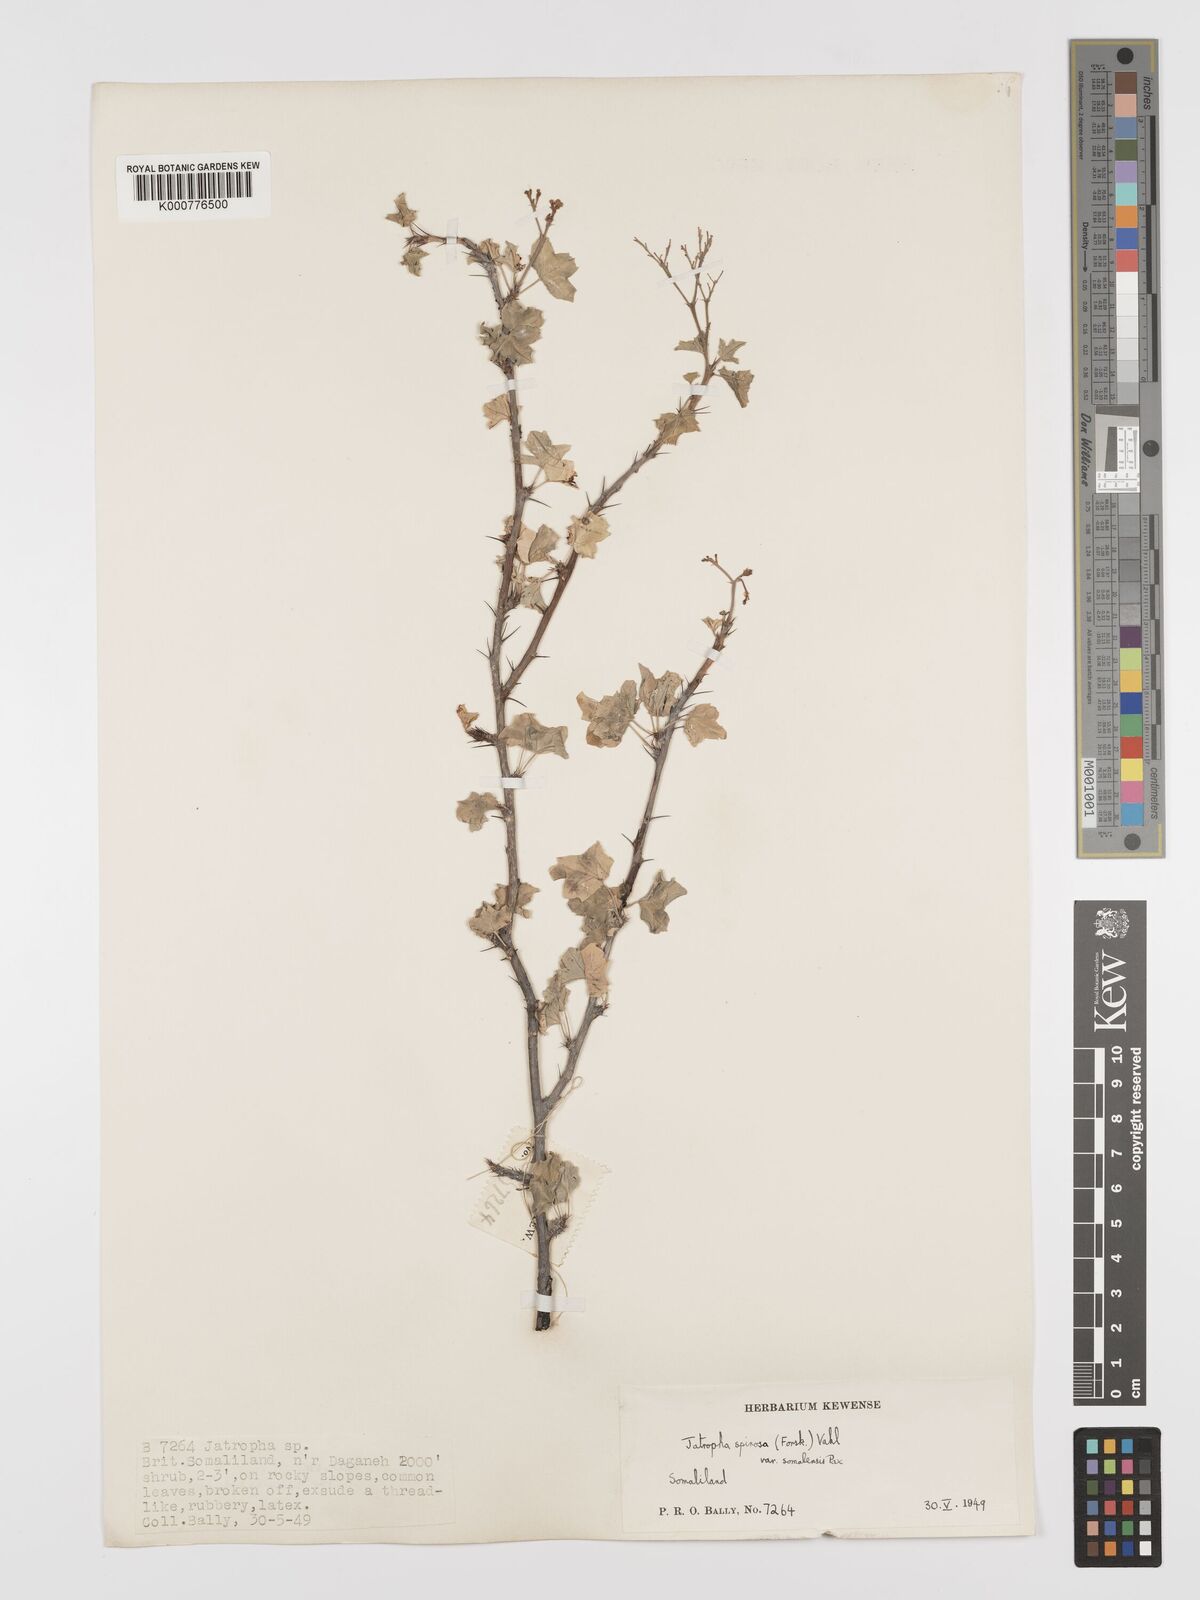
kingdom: Plantae
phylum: Tracheophyta
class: Magnoliopsida
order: Malpighiales
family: Euphorbiaceae
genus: Jatropha
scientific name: Jatropha spinosa
